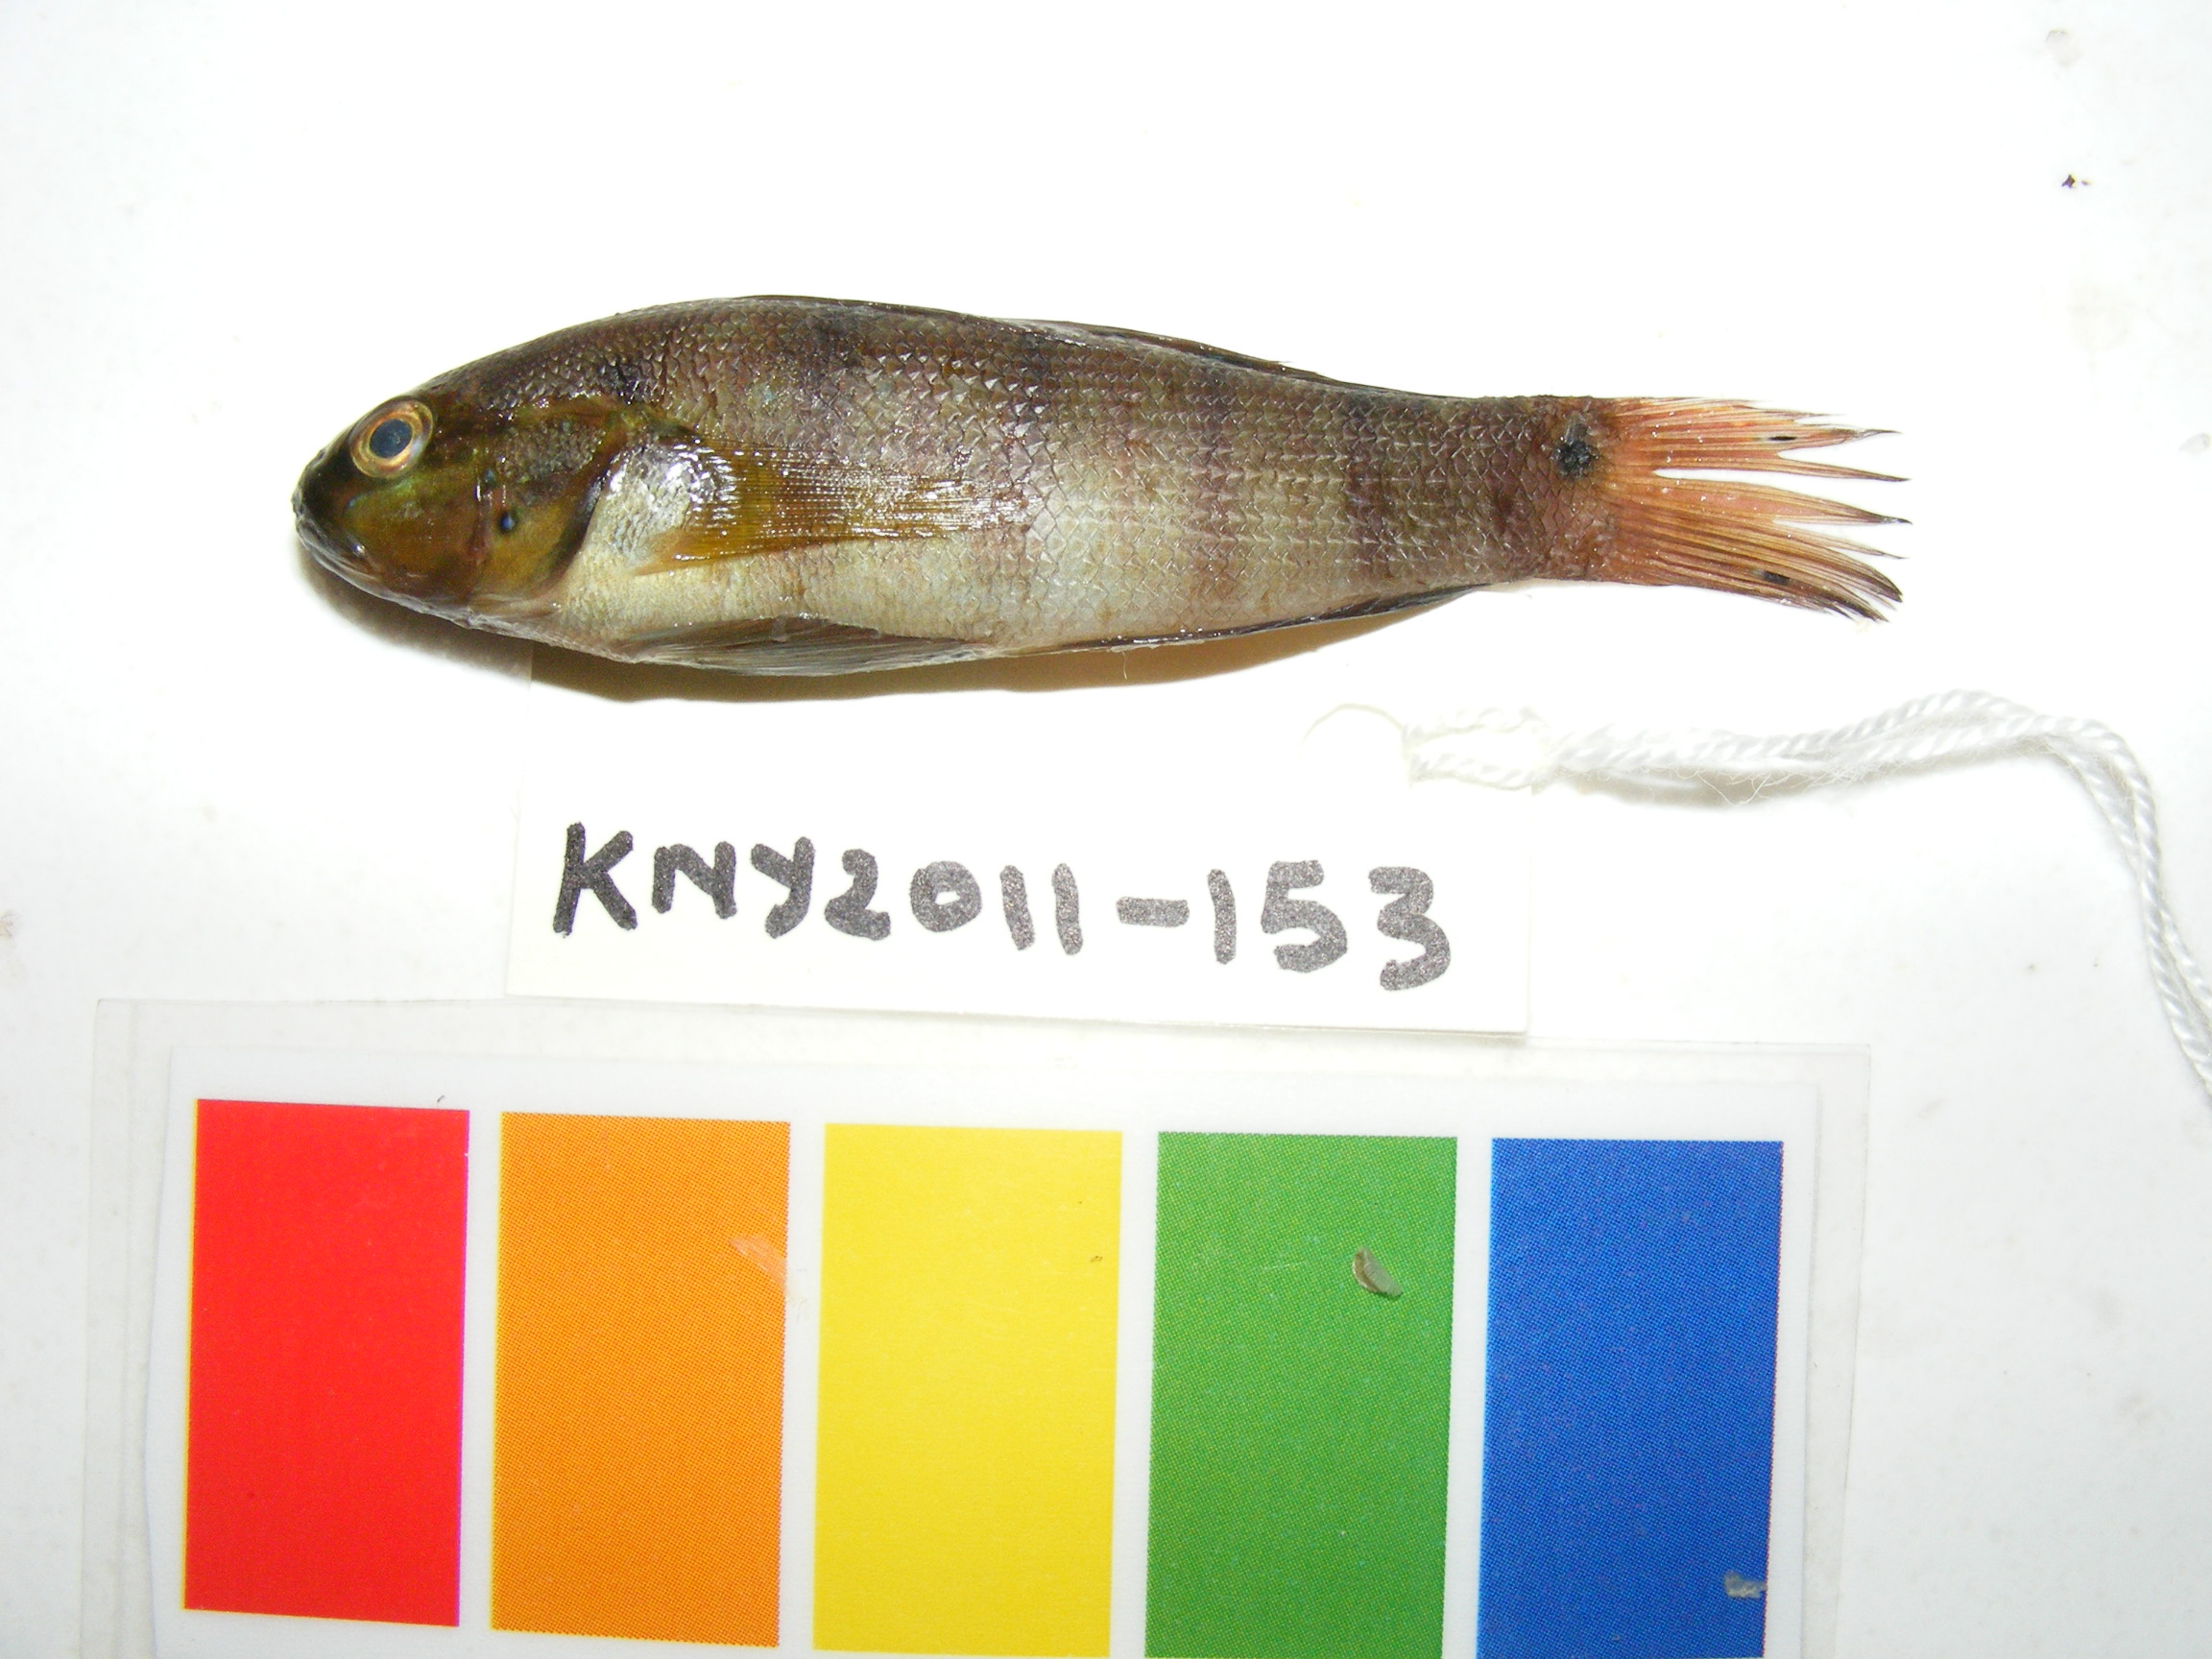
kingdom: Animalia
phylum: Chordata
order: Perciformes
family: Gobiidae
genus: Amblygobius
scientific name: Amblygobius albimaculatus
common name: Butterfly goby
